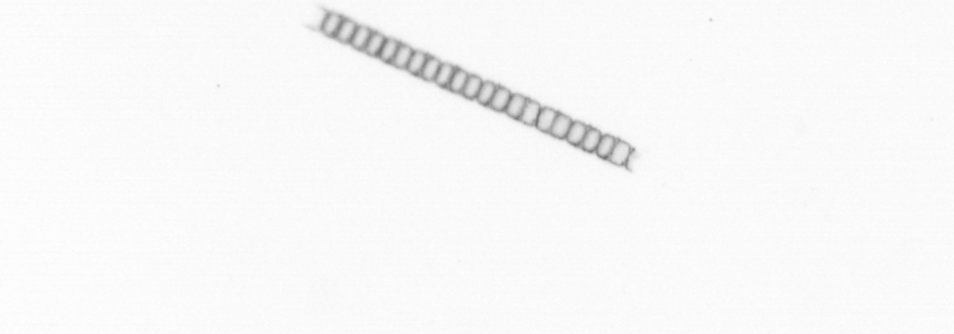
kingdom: Chromista
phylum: Ochrophyta
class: Bacillariophyceae
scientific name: Bacillariophyceae
